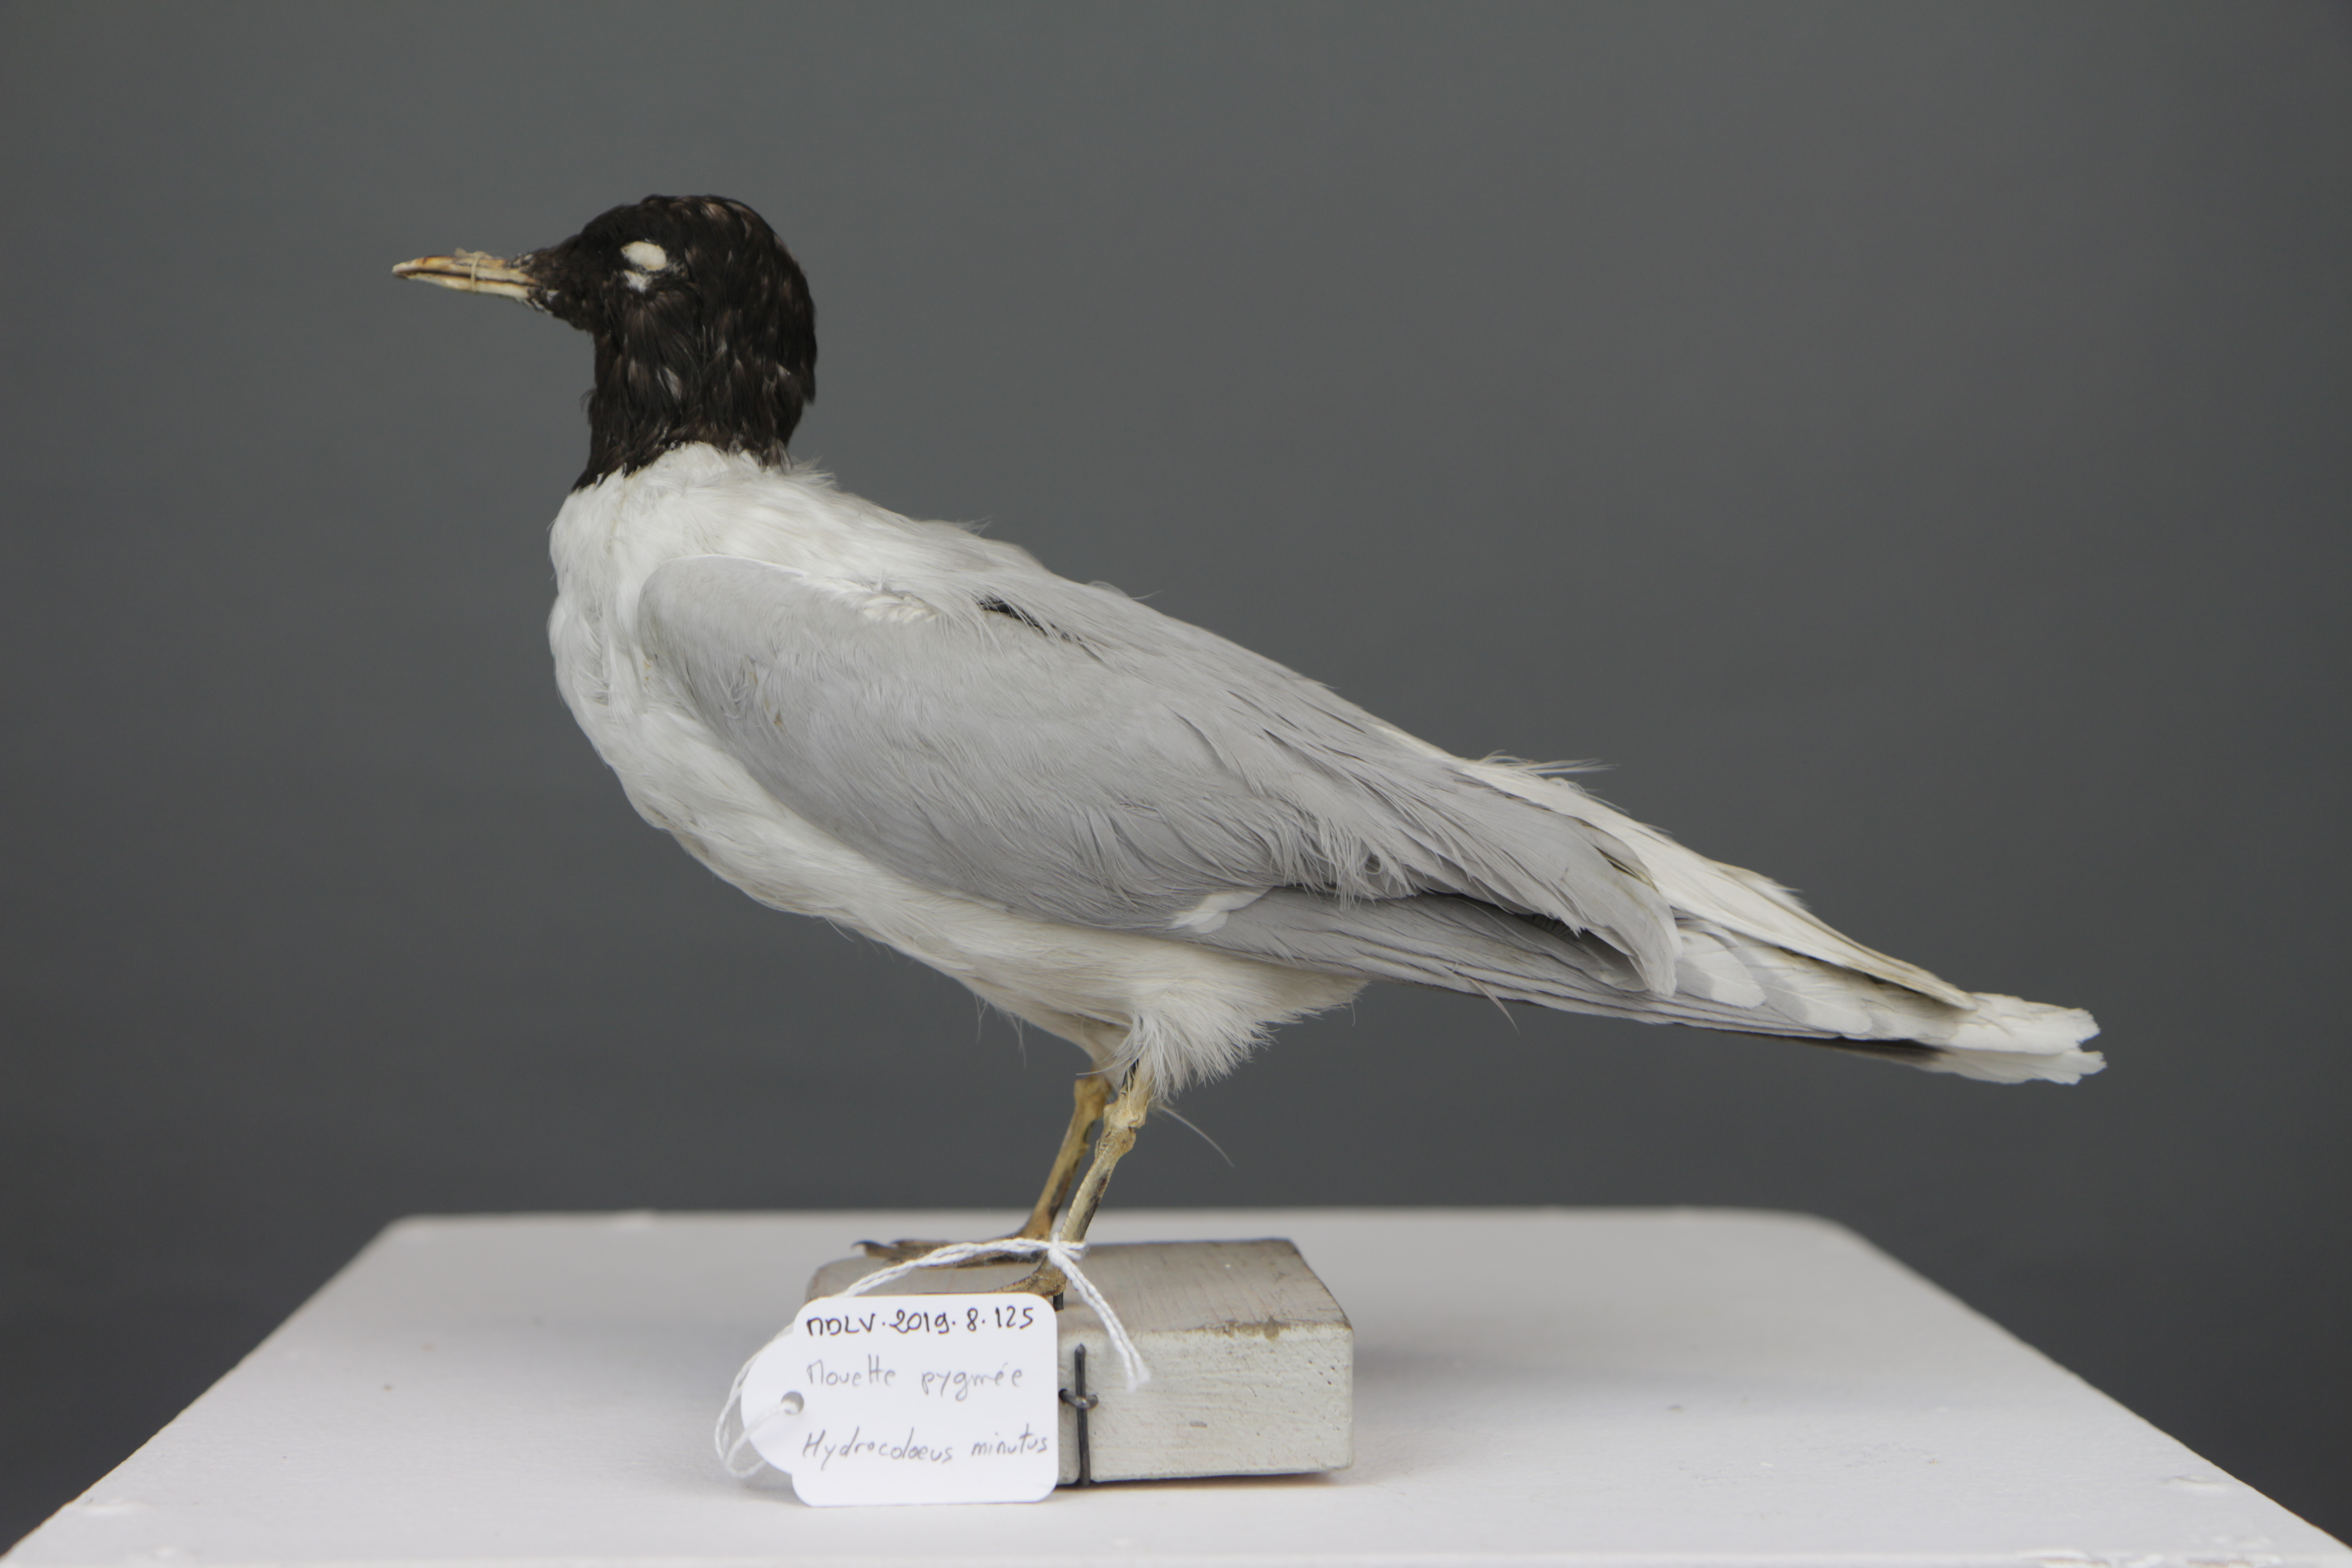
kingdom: Animalia
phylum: Chordata
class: Aves
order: Charadriiformes
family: Laridae
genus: Hydrocoloeus
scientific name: Hydrocoloeus minutus
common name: Little gull
